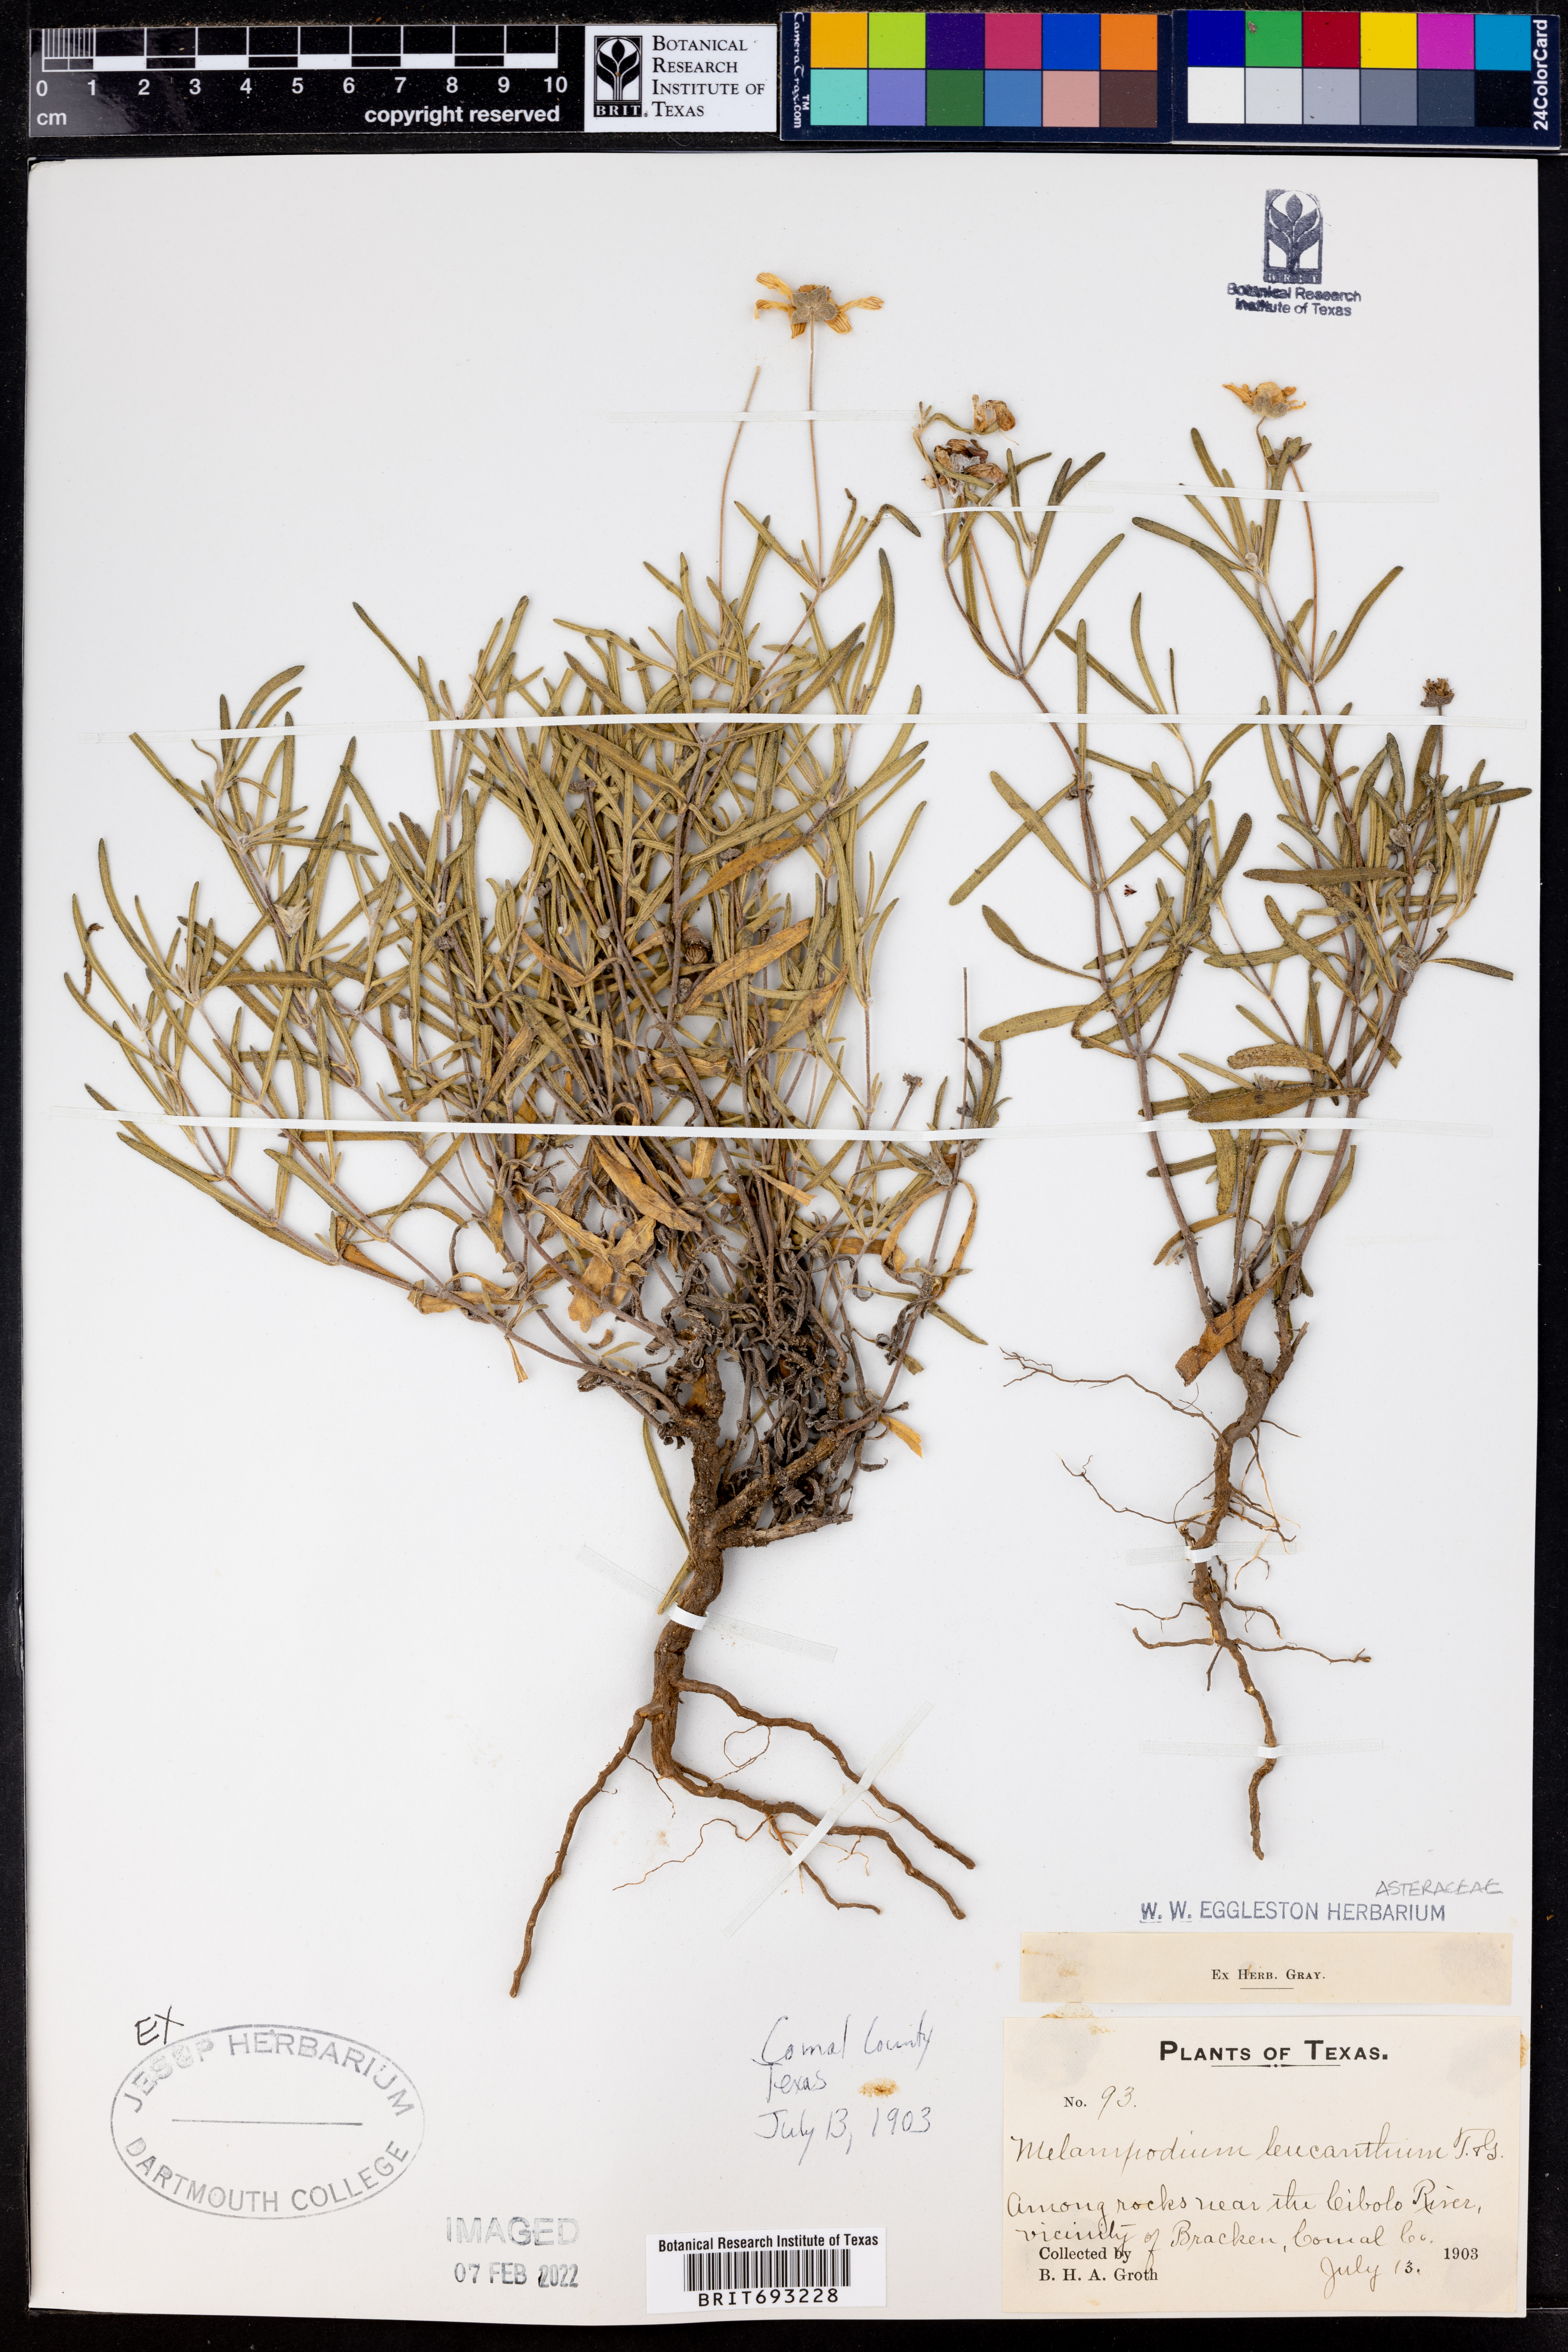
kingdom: Plantae
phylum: Tracheophyta
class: Magnoliopsida
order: Asterales
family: Asteraceae
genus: Melampodium
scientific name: Melampodium leucanthum
